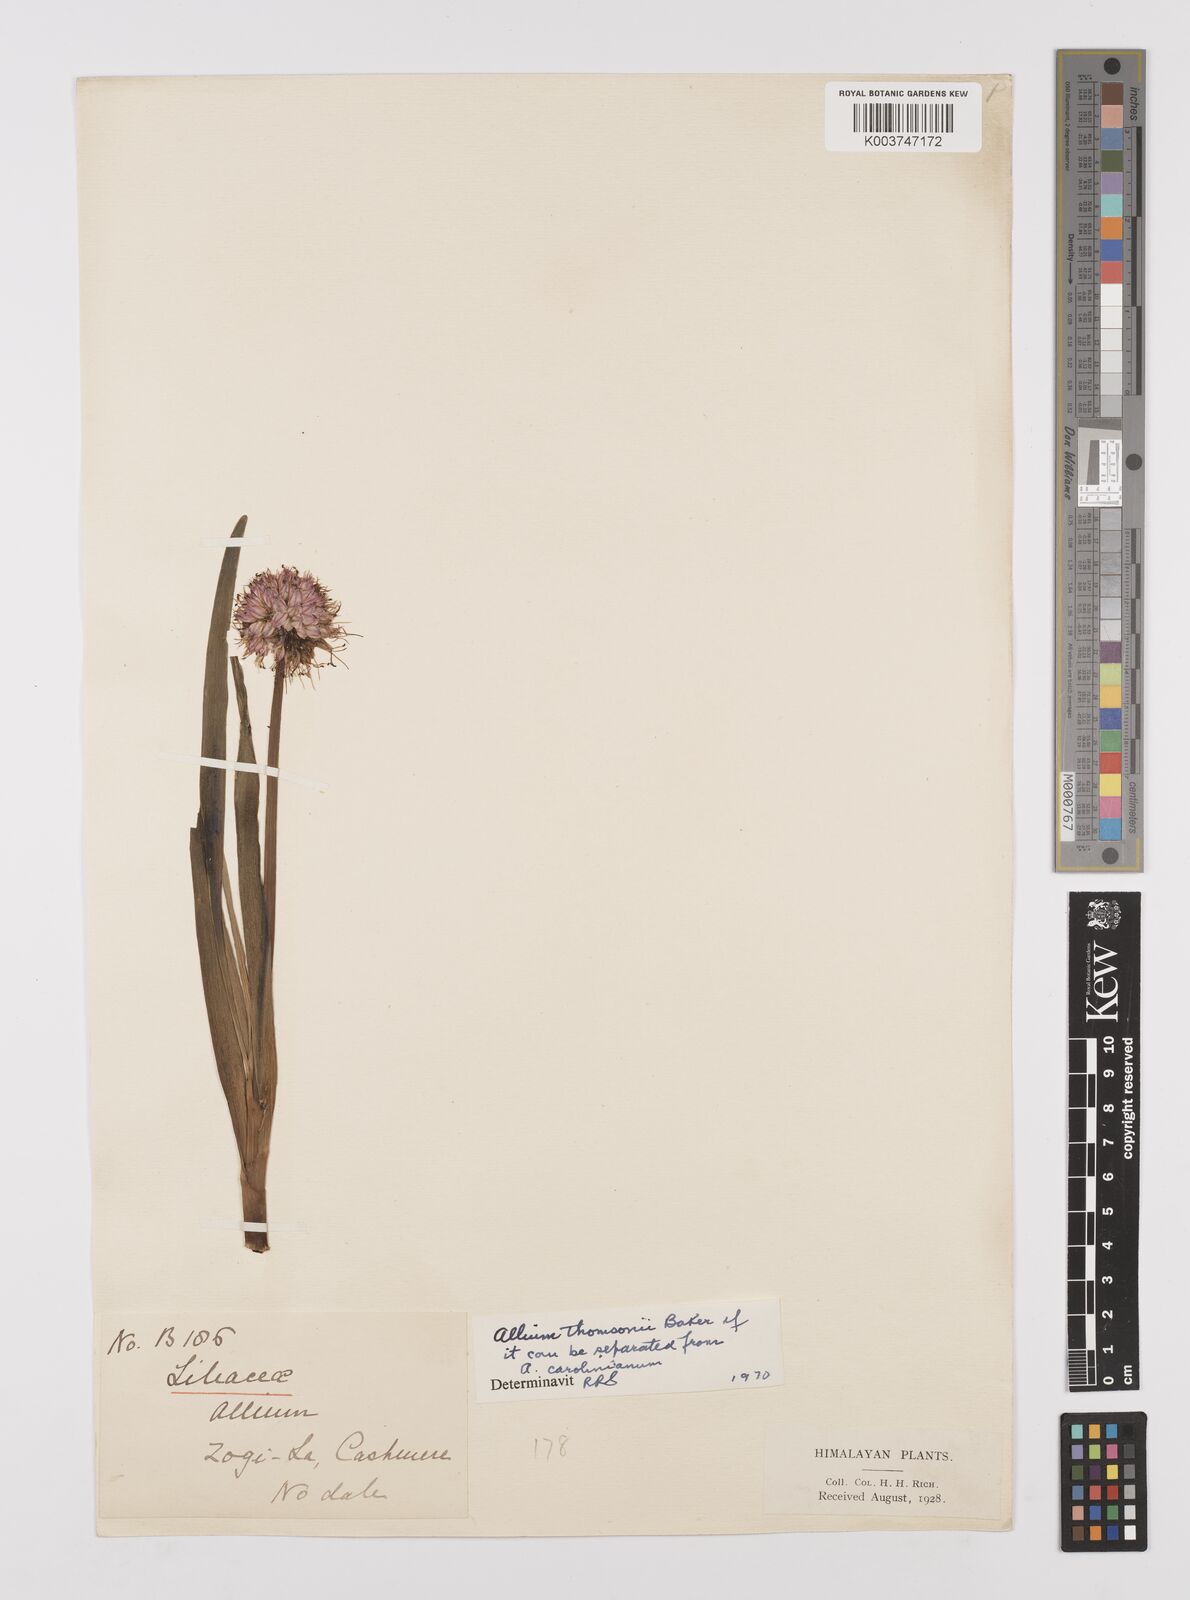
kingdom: Plantae
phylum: Tracheophyta
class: Liliopsida
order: Asparagales
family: Amaryllidaceae
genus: Allium
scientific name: Allium carolinianum
